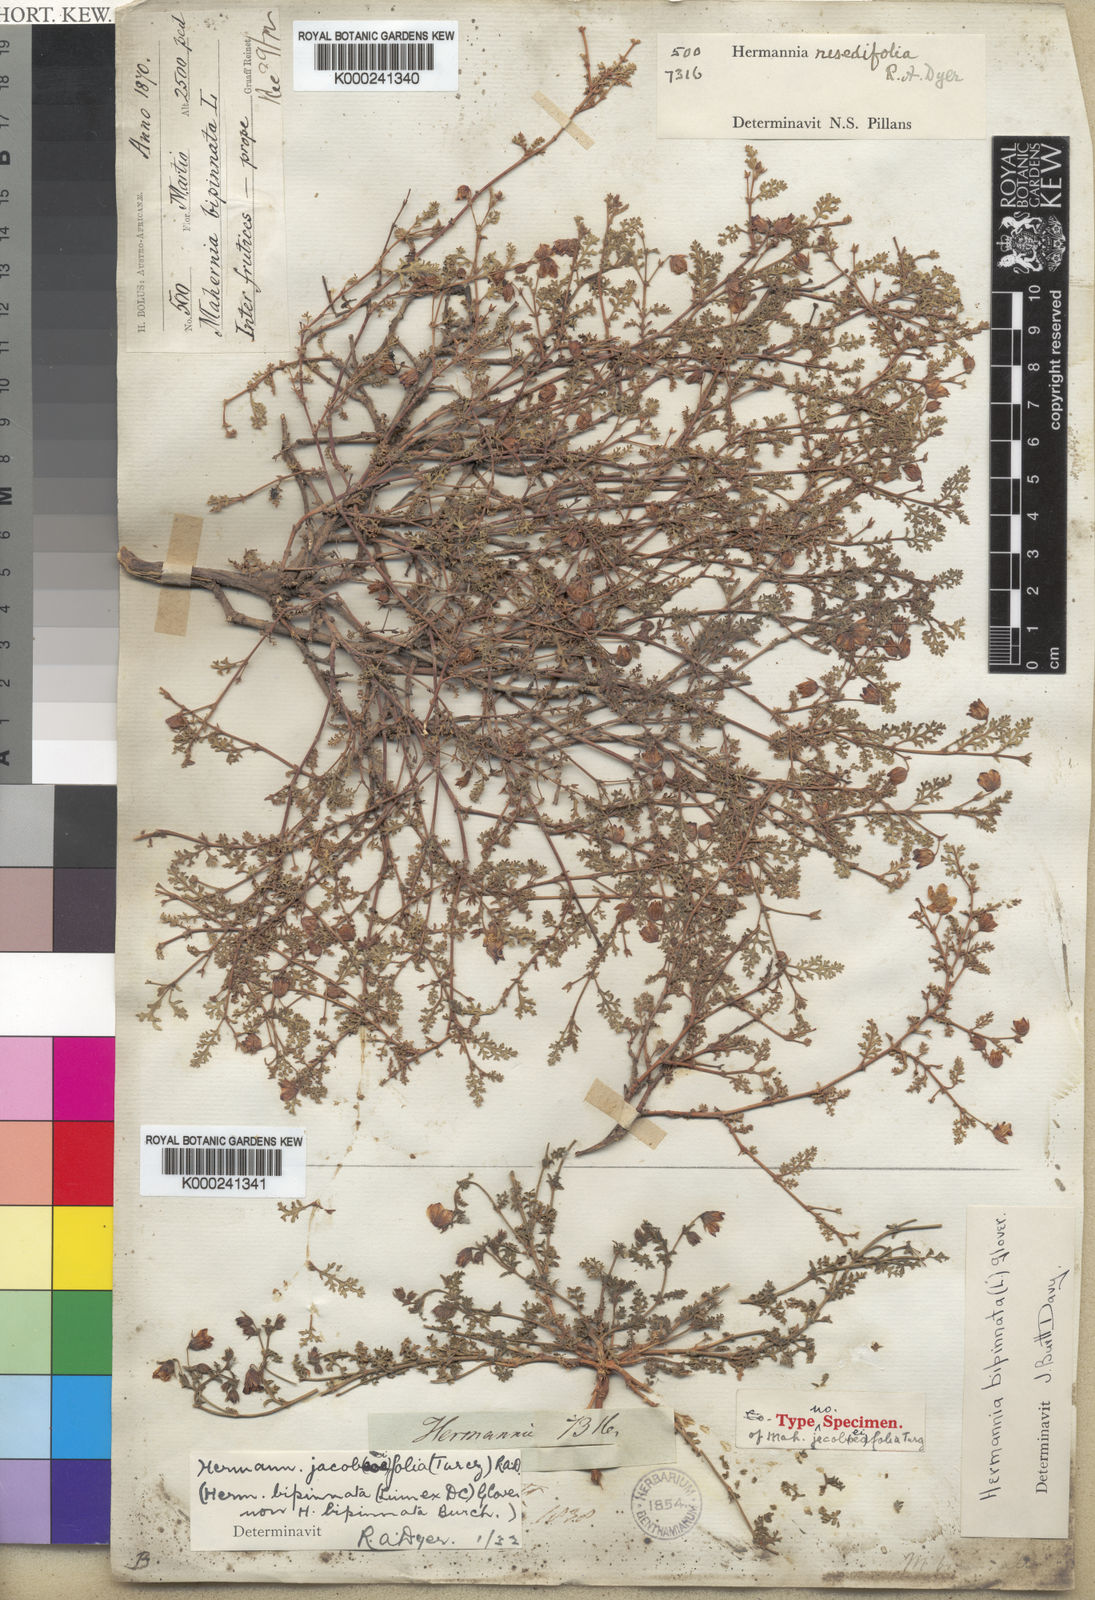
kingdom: Plantae
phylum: Tracheophyta
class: Magnoliopsida
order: Malvales
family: Malvaceae
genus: Hermannia
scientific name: Hermannia jacobeifolia
